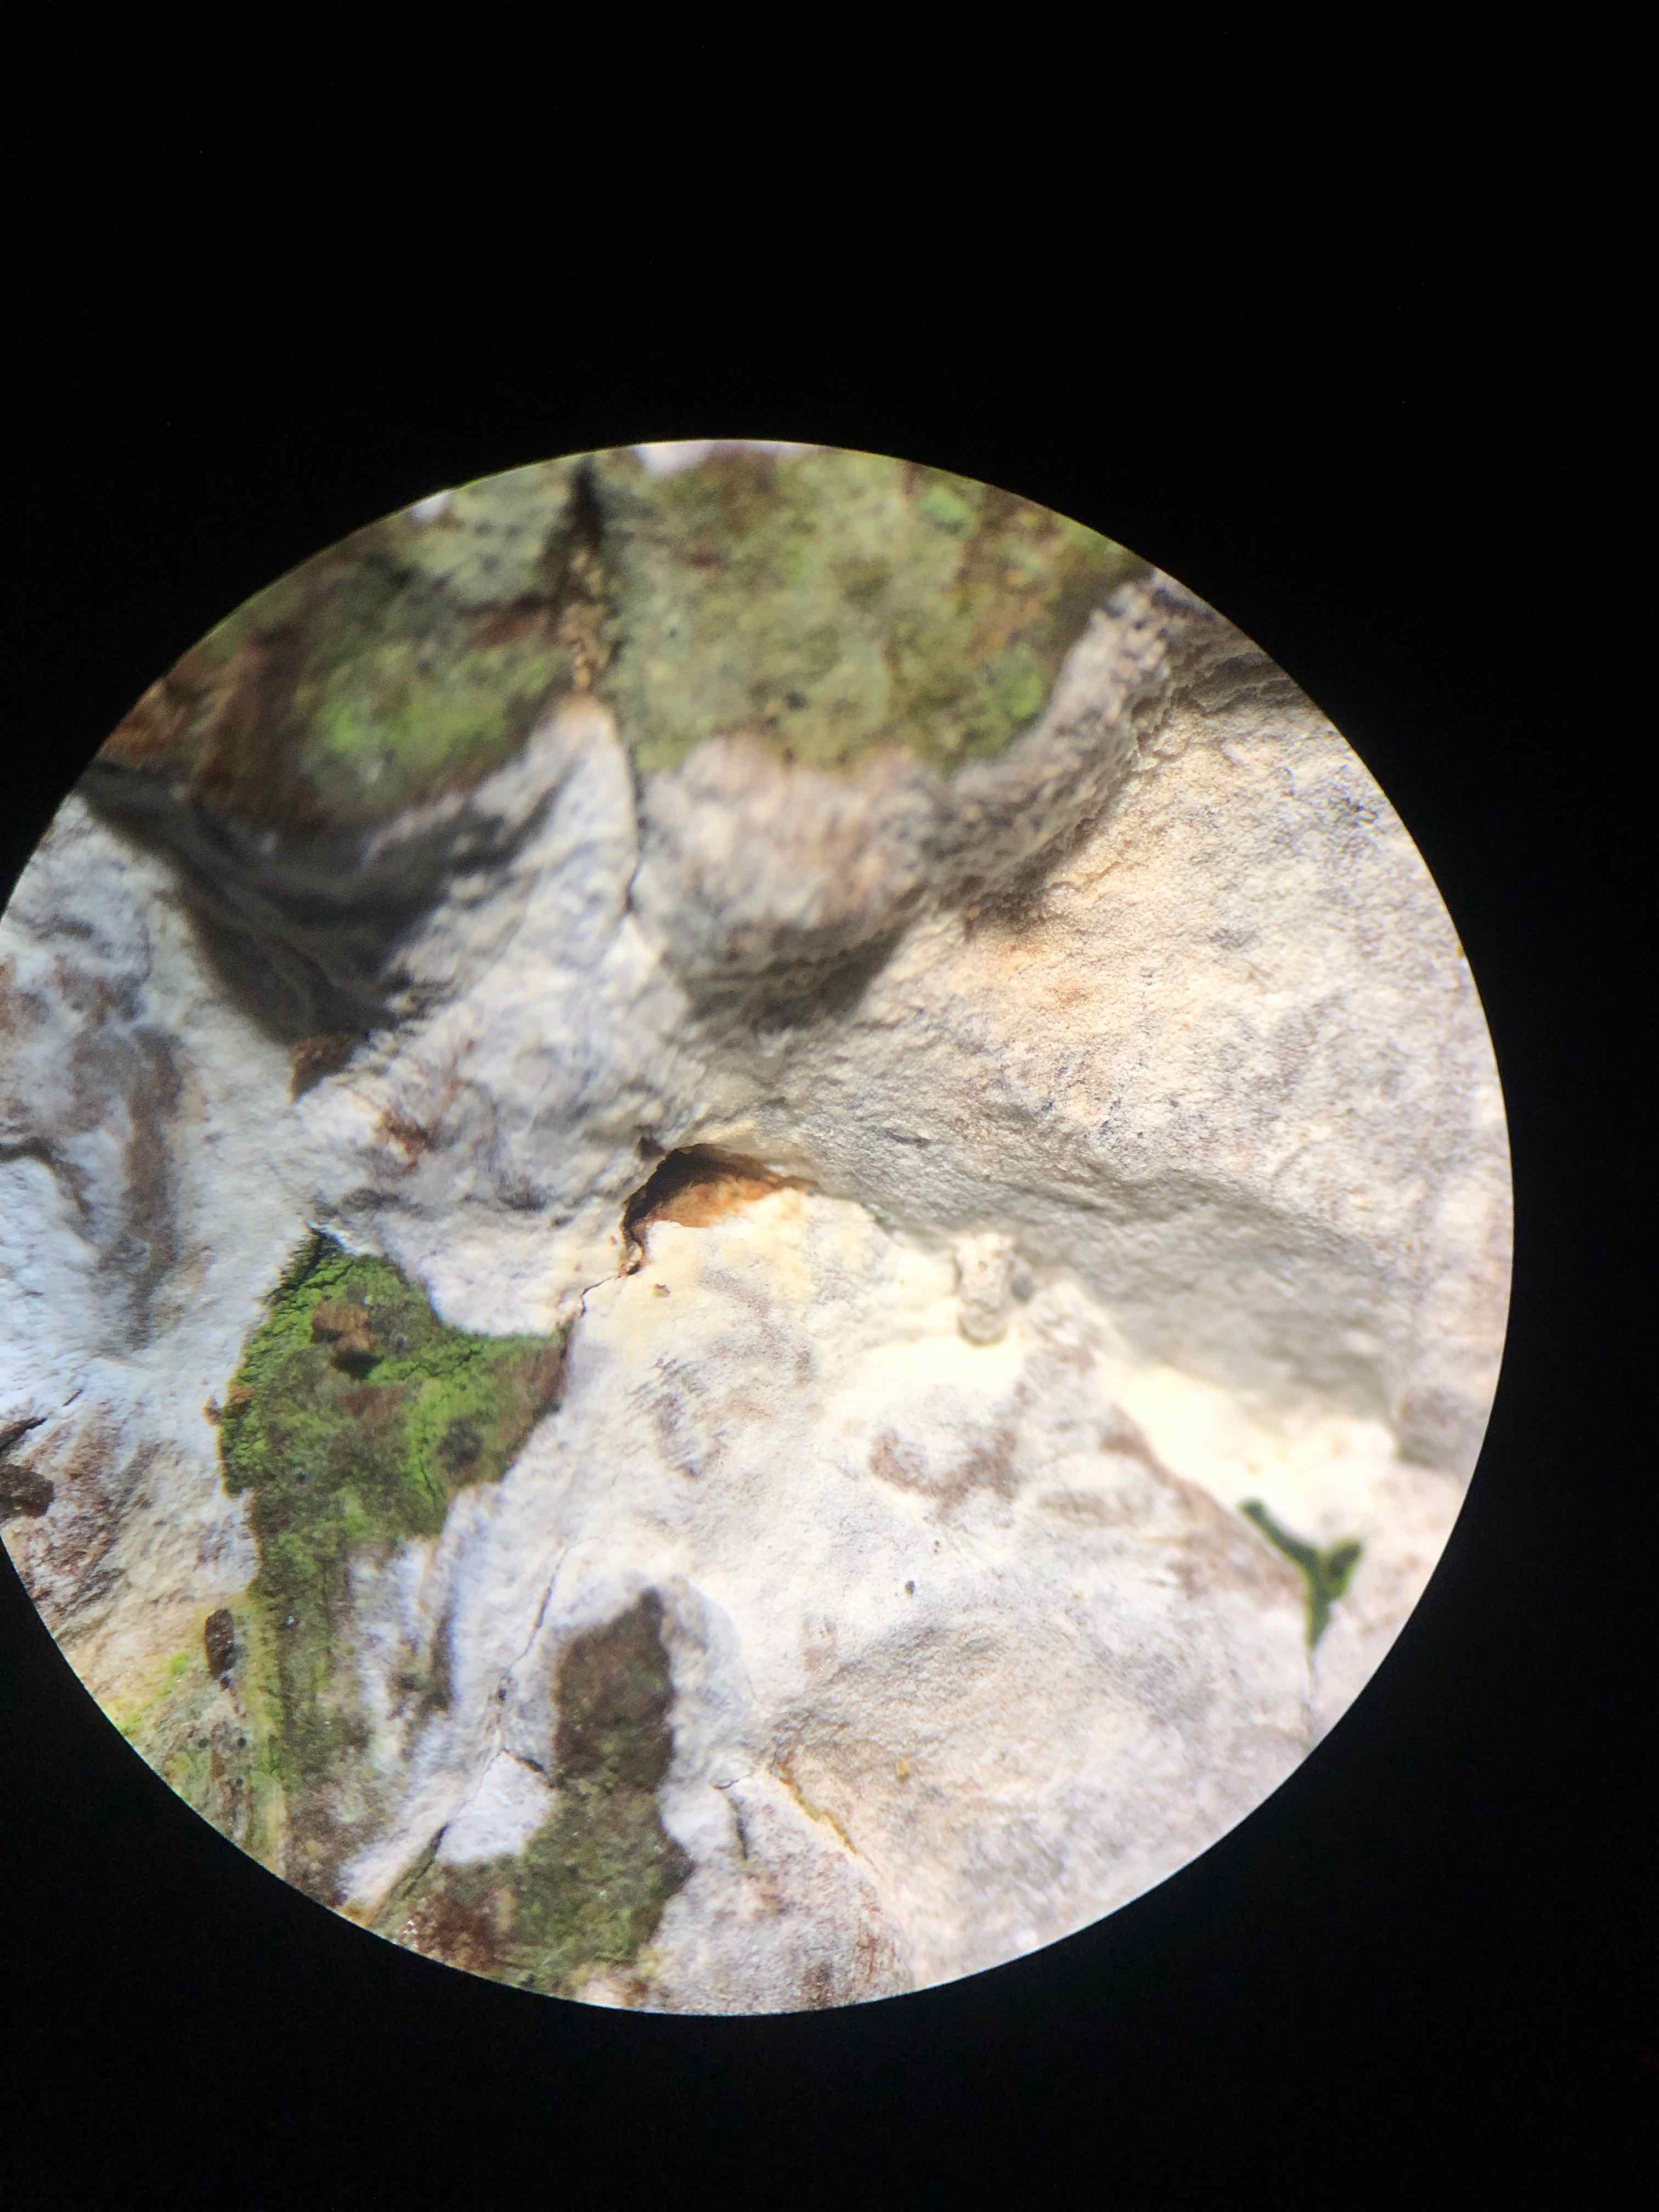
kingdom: Fungi
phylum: Basidiomycota
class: Agaricomycetes
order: Agaricales
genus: Dendrothele
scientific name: Dendrothele acerina
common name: navr-kalkplet
